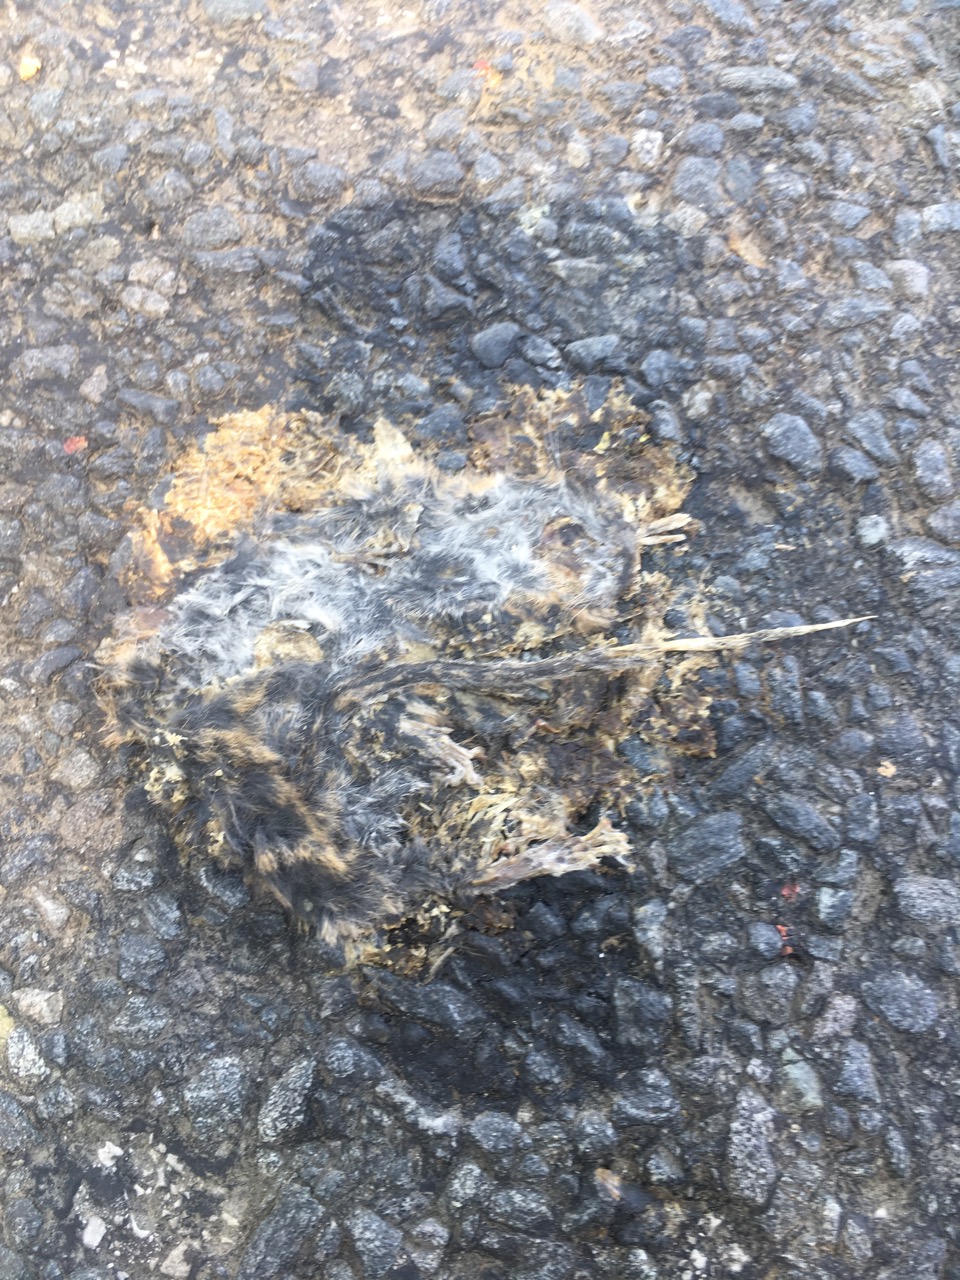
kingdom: Animalia
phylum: Chordata
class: Mammalia
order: Rodentia
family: Muridae
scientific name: Muridae
